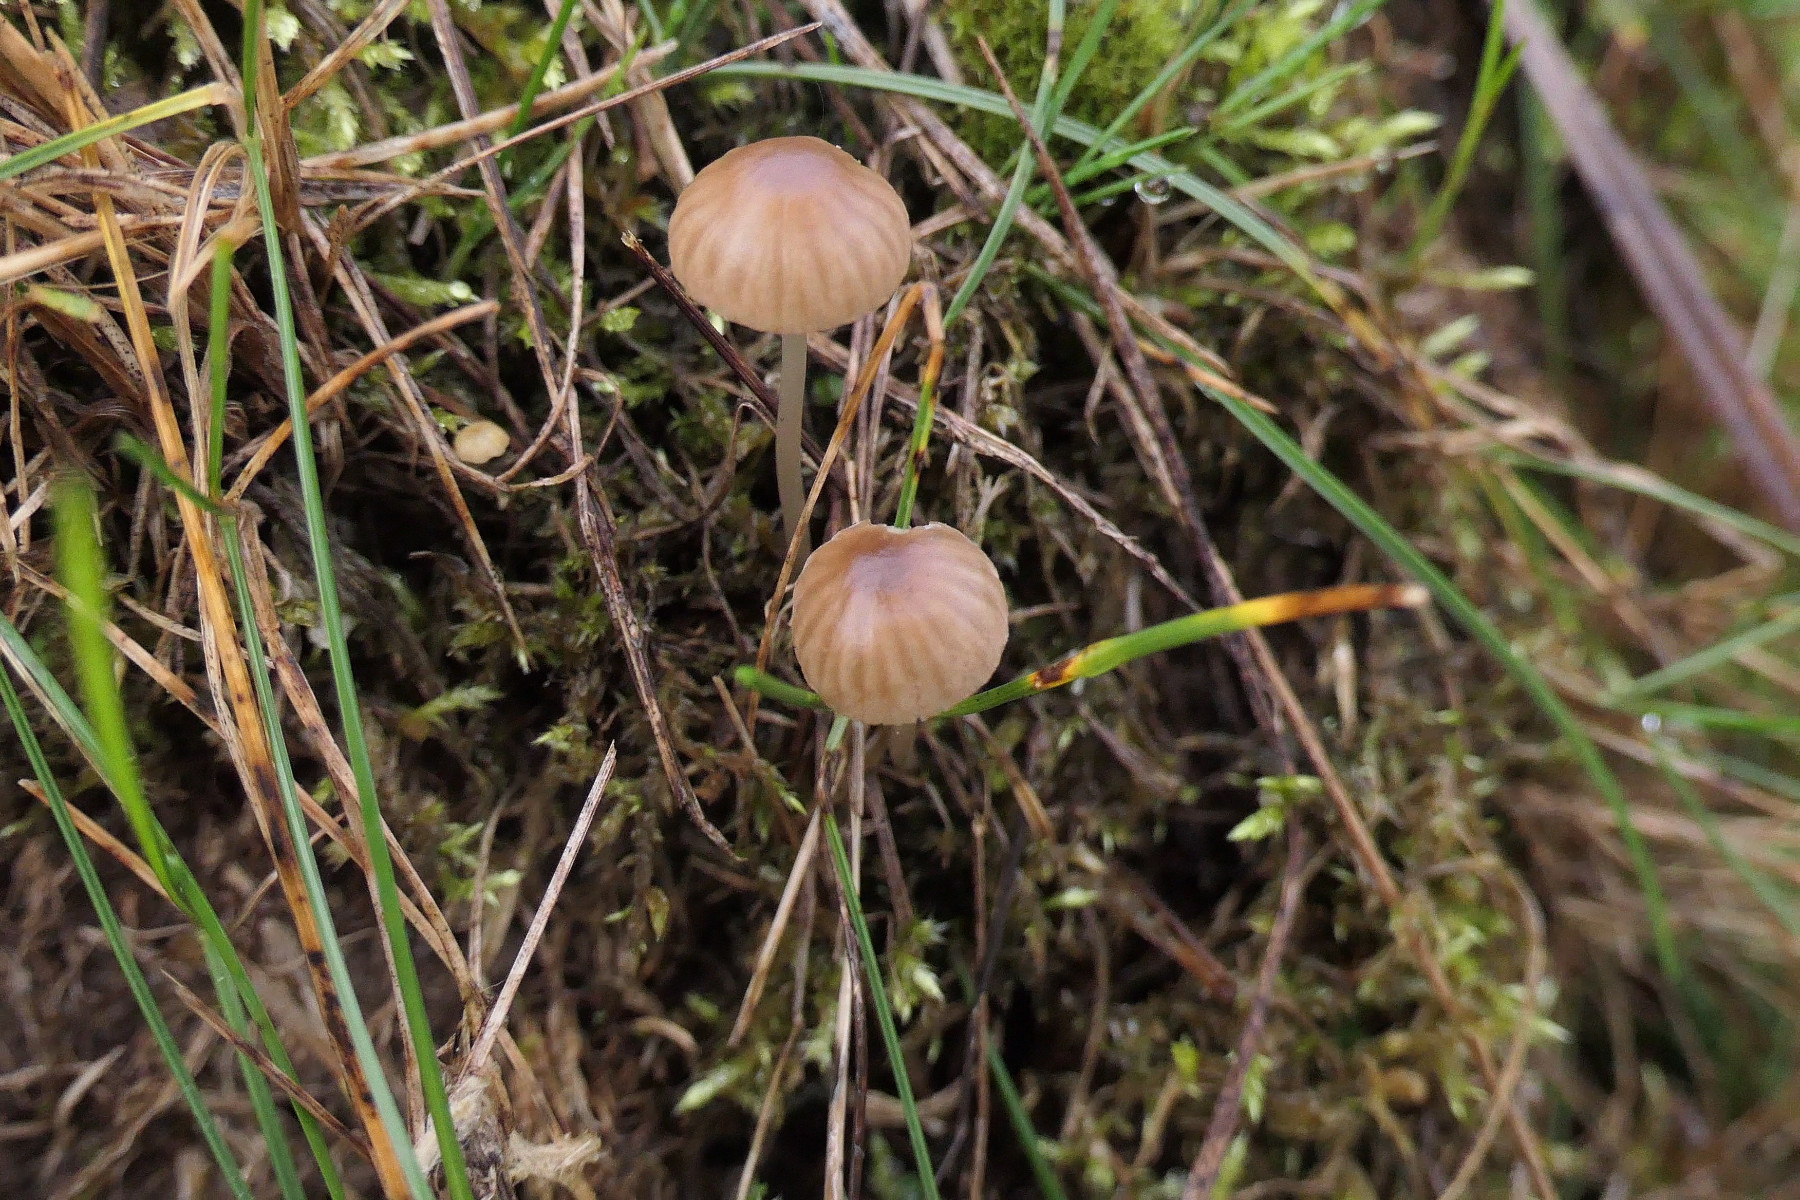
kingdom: Fungi
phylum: Basidiomycota
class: Agaricomycetes
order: Agaricales
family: Mycenaceae
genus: Mycena
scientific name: Mycena olivaceomarginata
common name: brunægget huesvamp
